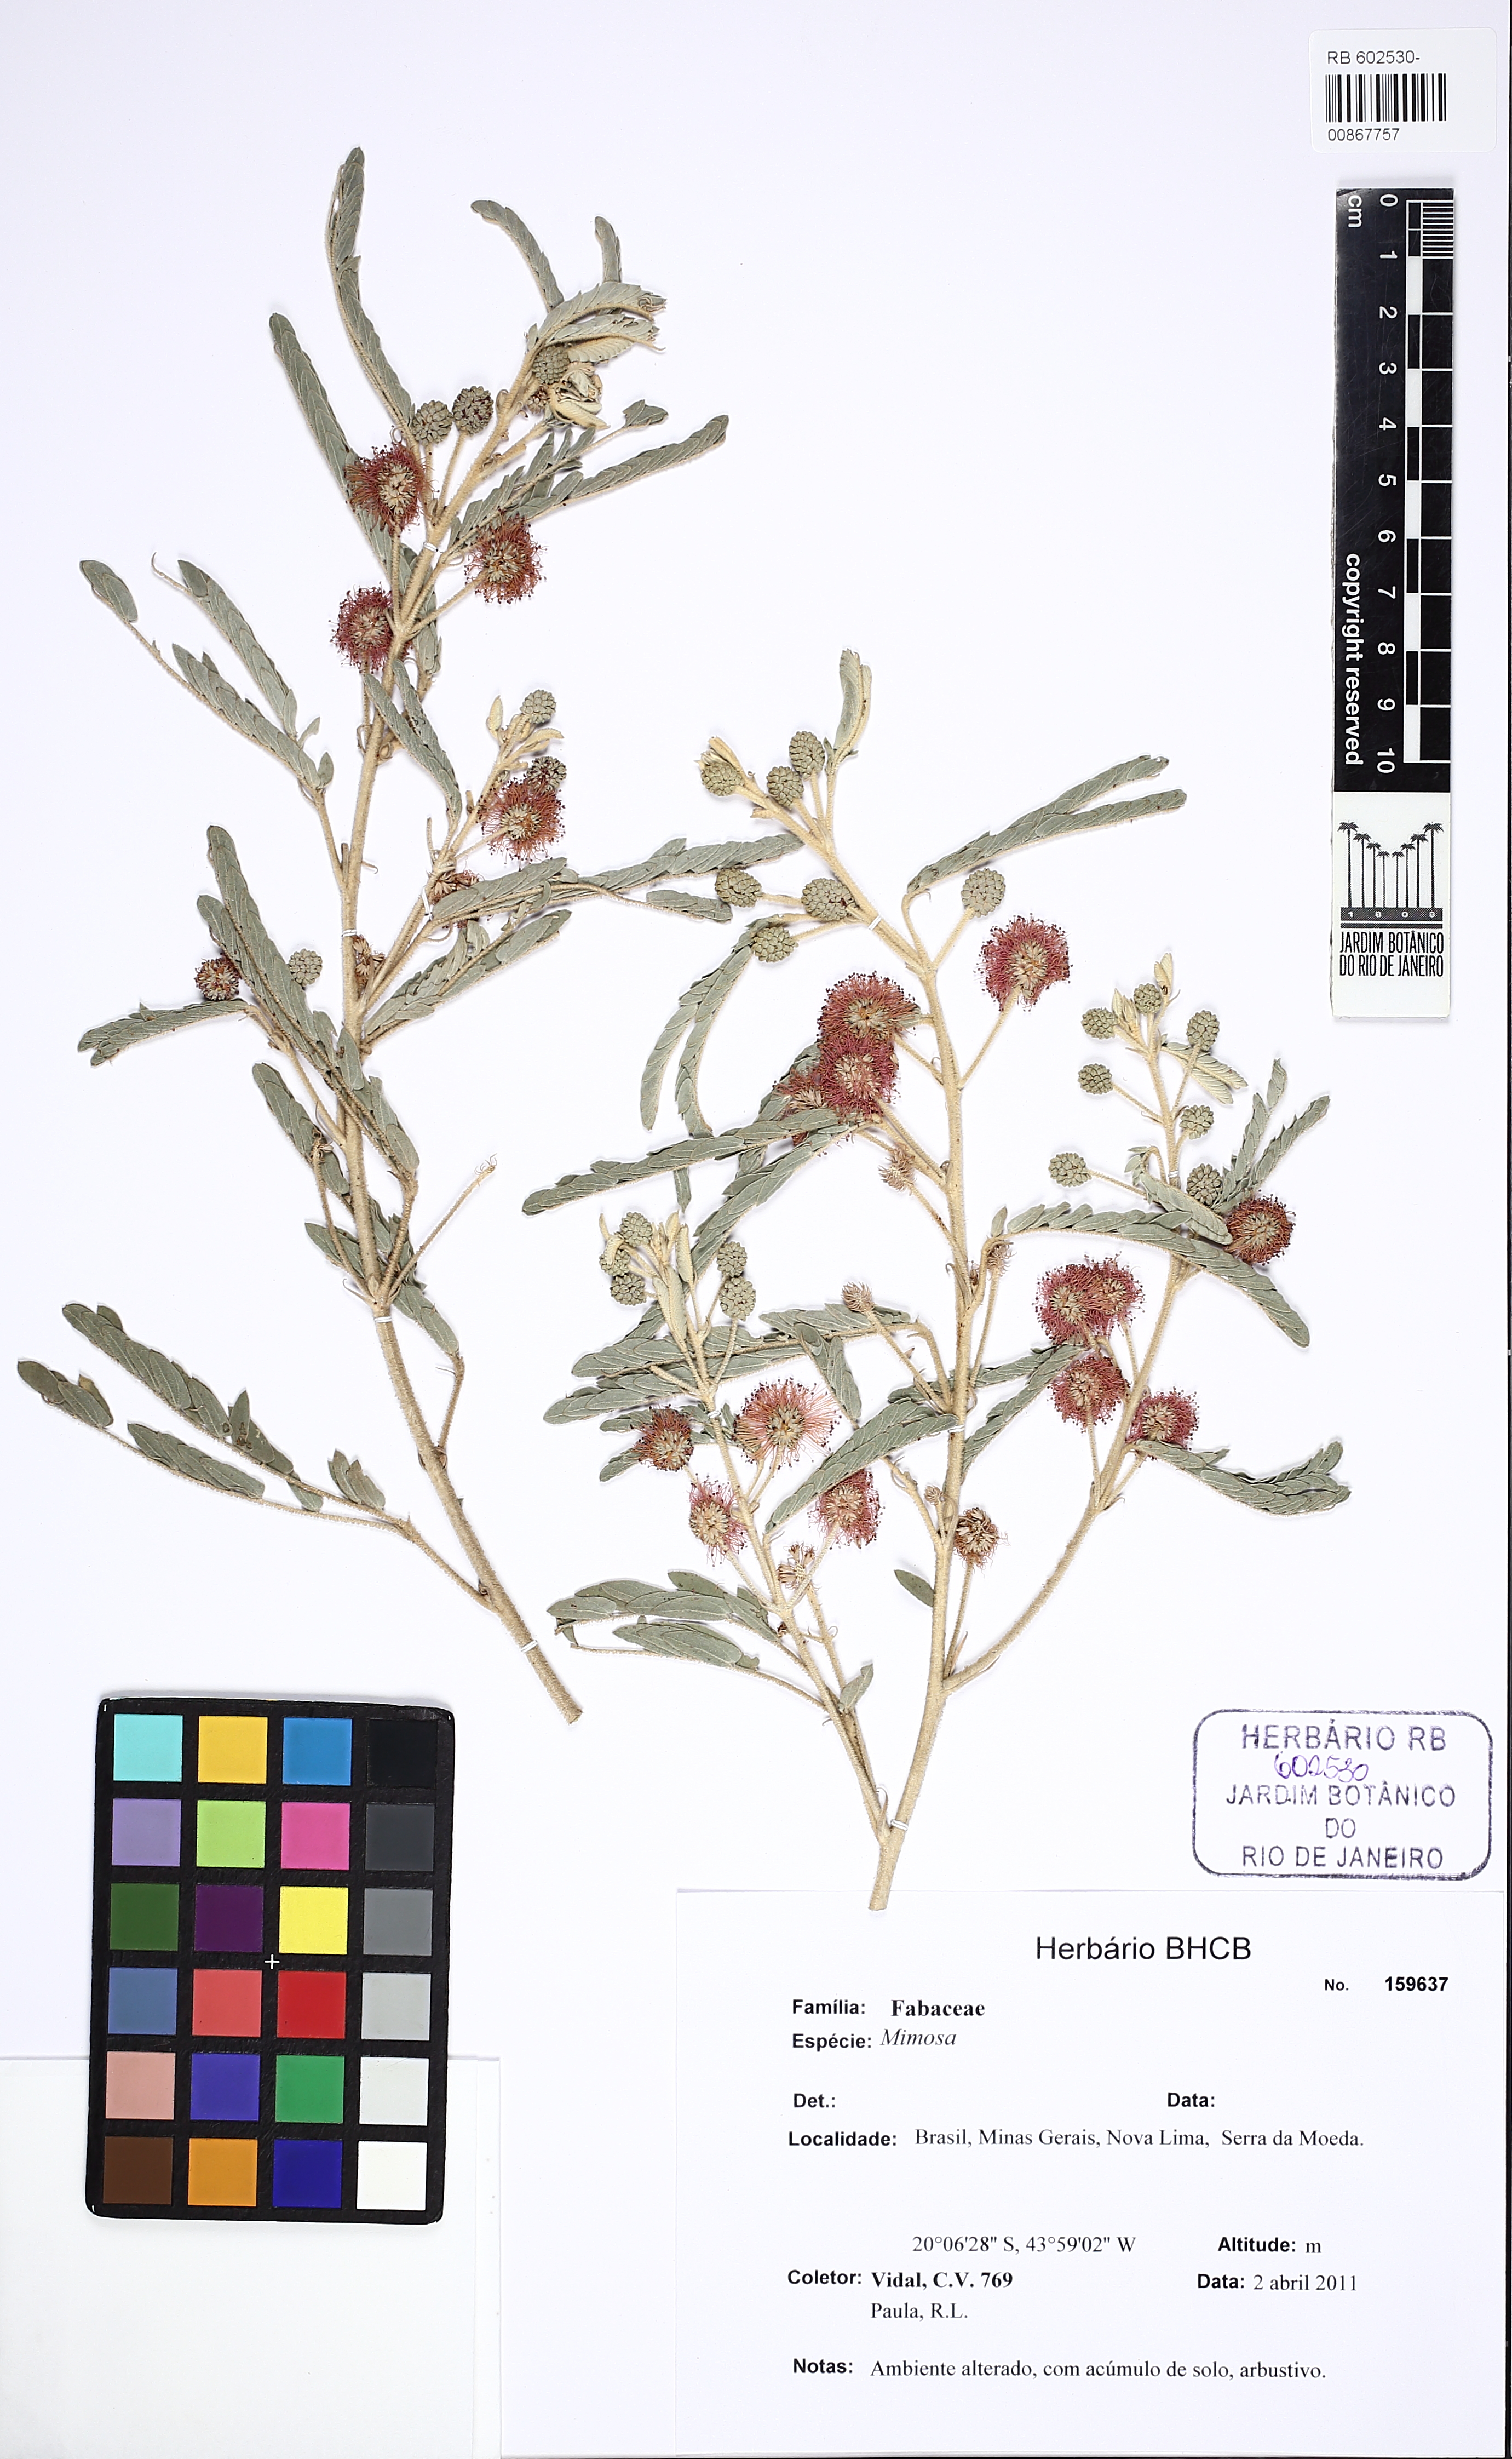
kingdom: Plantae
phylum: Tracheophyta
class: Magnoliopsida
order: Fabales
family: Fabaceae
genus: Mimosa
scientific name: Mimosa longistipula
